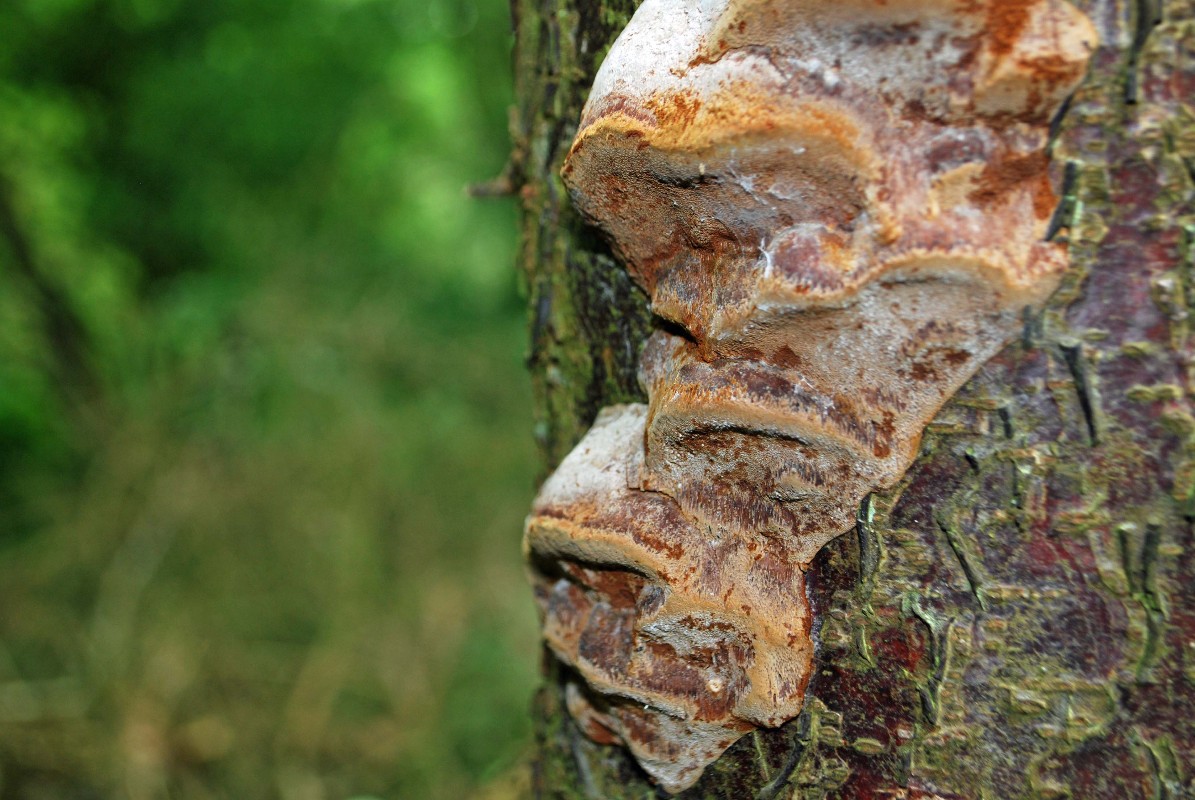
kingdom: Fungi
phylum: Basidiomycota
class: Agaricomycetes
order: Hymenochaetales
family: Hymenochaetaceae
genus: Phellinus
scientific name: Phellinus pomaceus
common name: blomme-ildporesvamp
